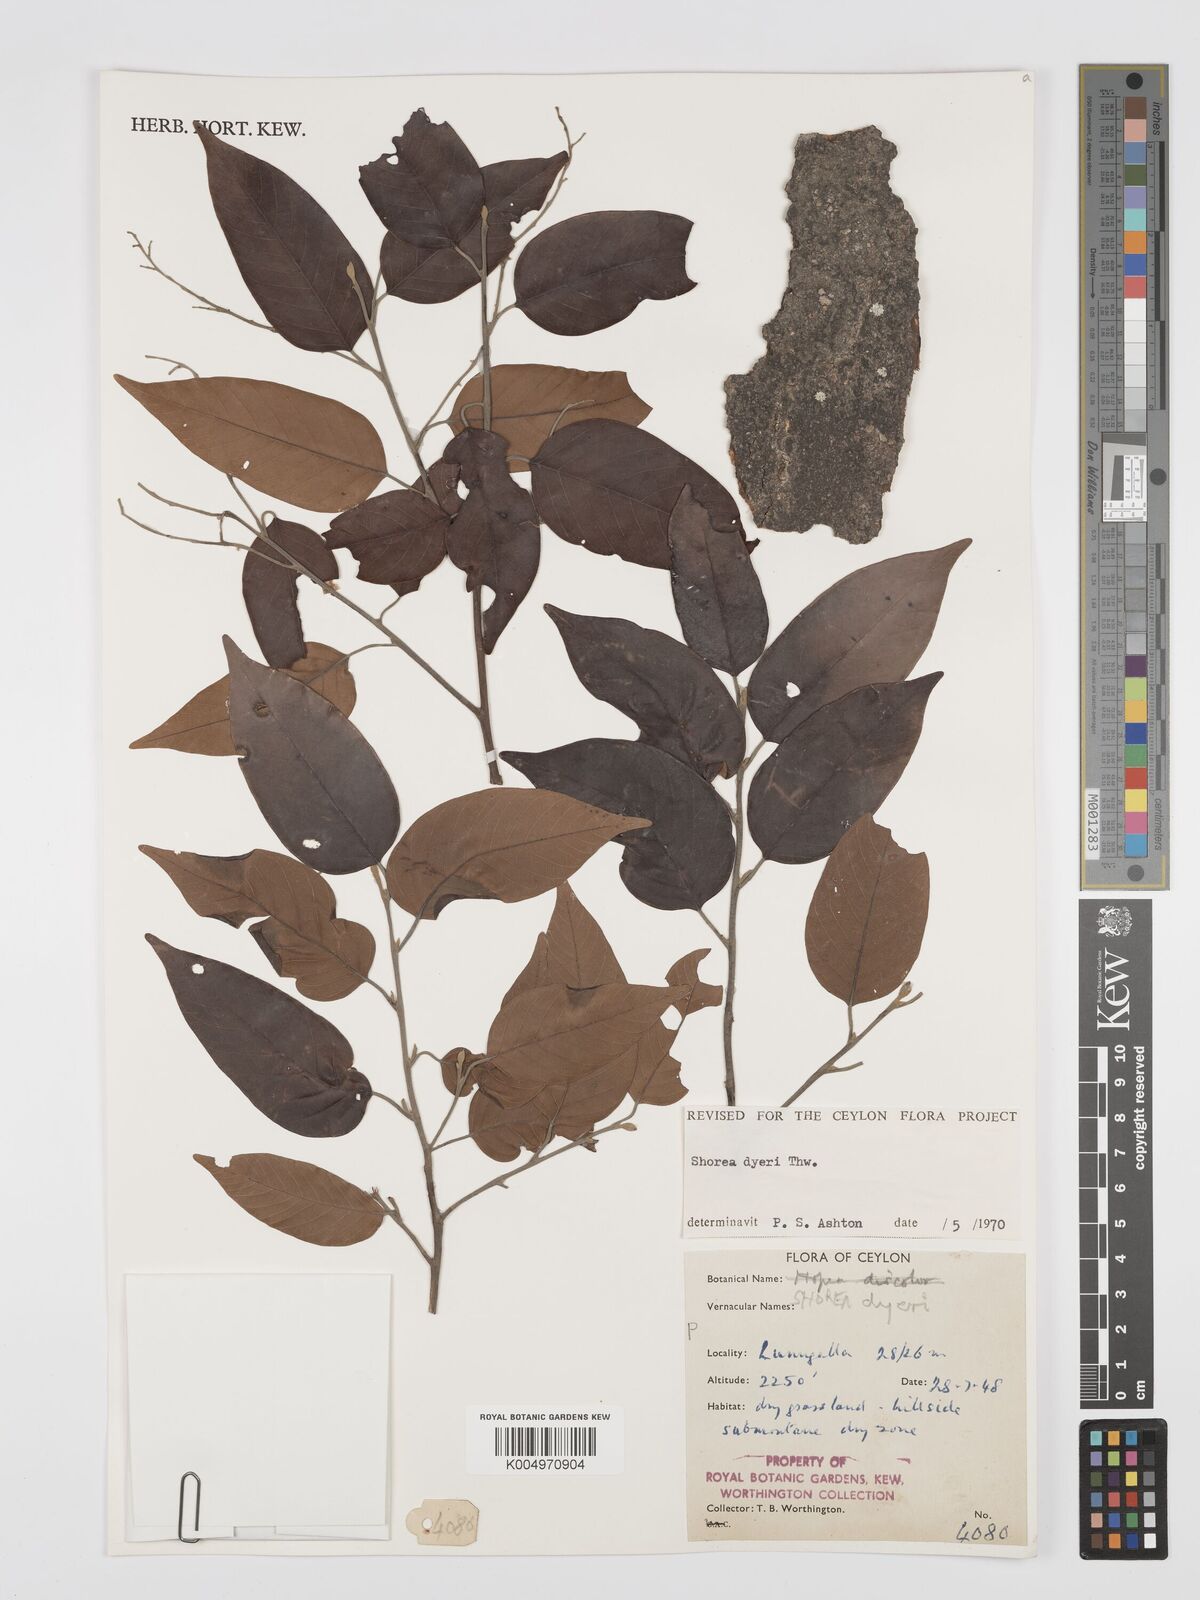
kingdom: Plantae
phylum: Tracheophyta
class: Magnoliopsida
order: Malvales
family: Dipterocarpaceae
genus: Shorea
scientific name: Shorea dyeri
